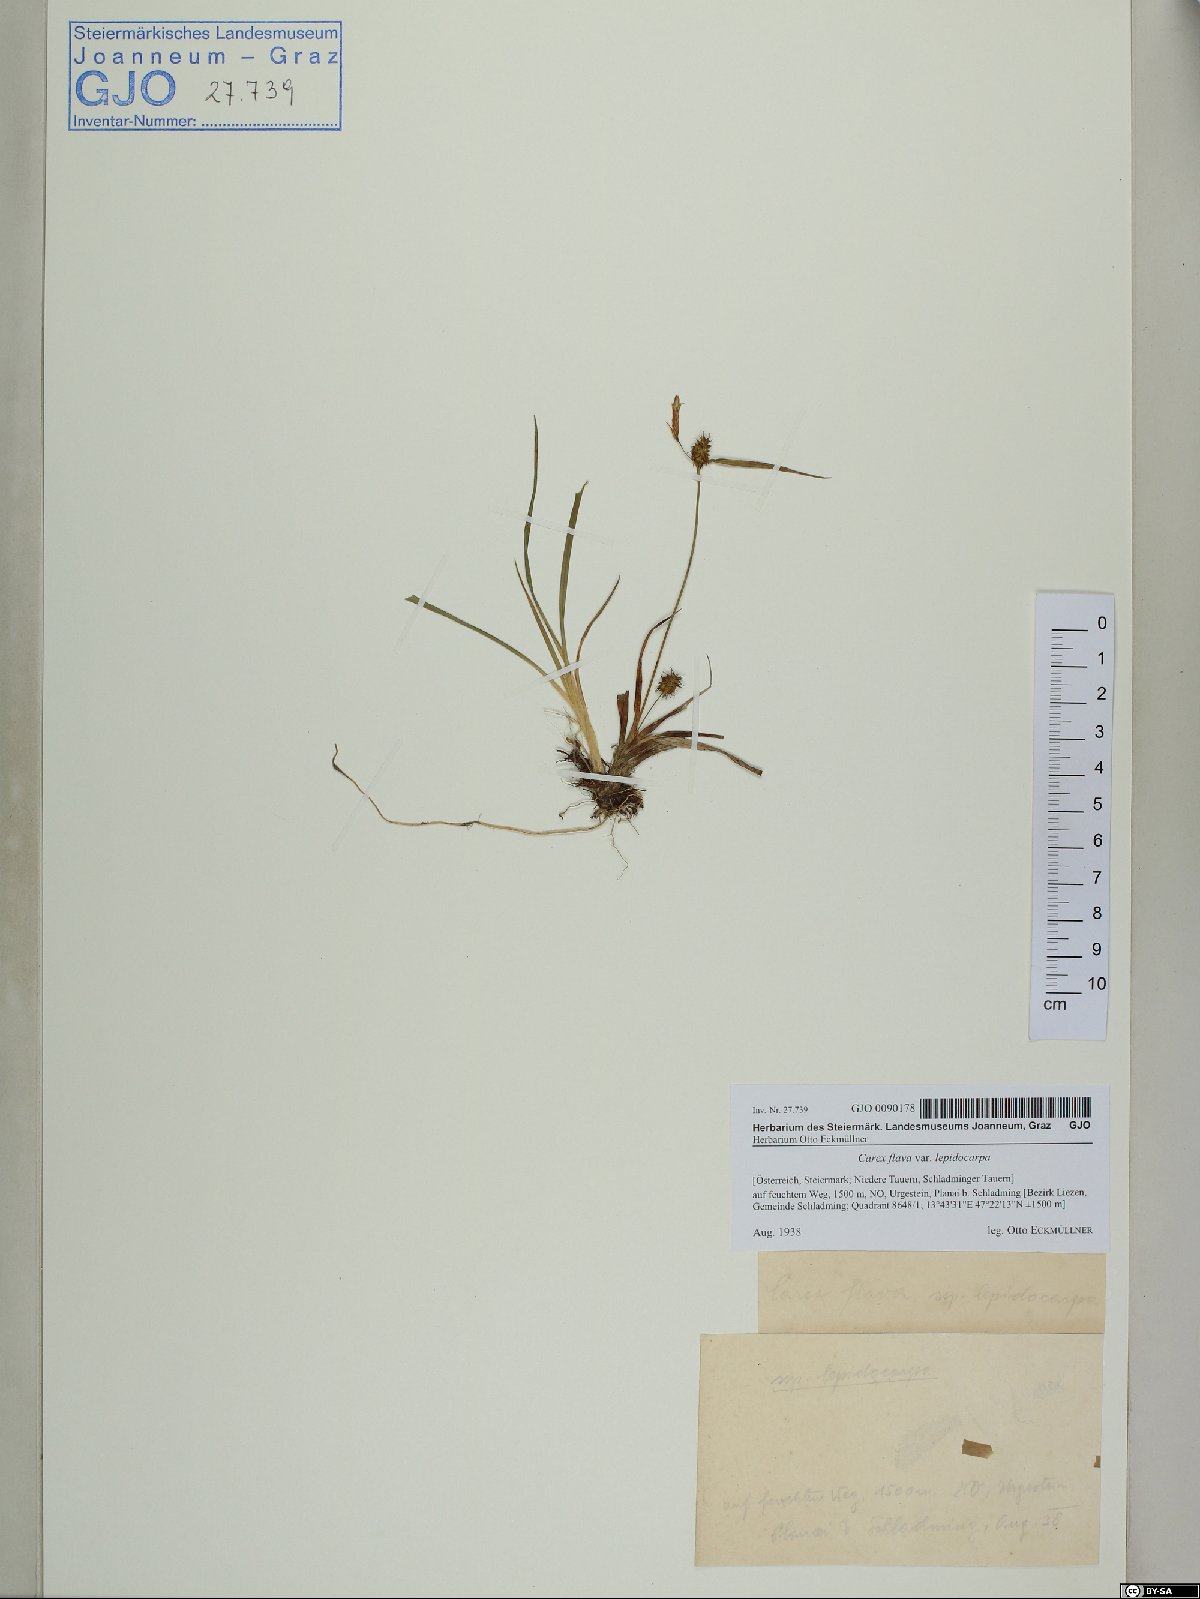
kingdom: Plantae
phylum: Tracheophyta
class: Liliopsida
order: Poales
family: Cyperaceae
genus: Carex
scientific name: Carex lepidocarpa
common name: Long-stalked yellow-sedge
